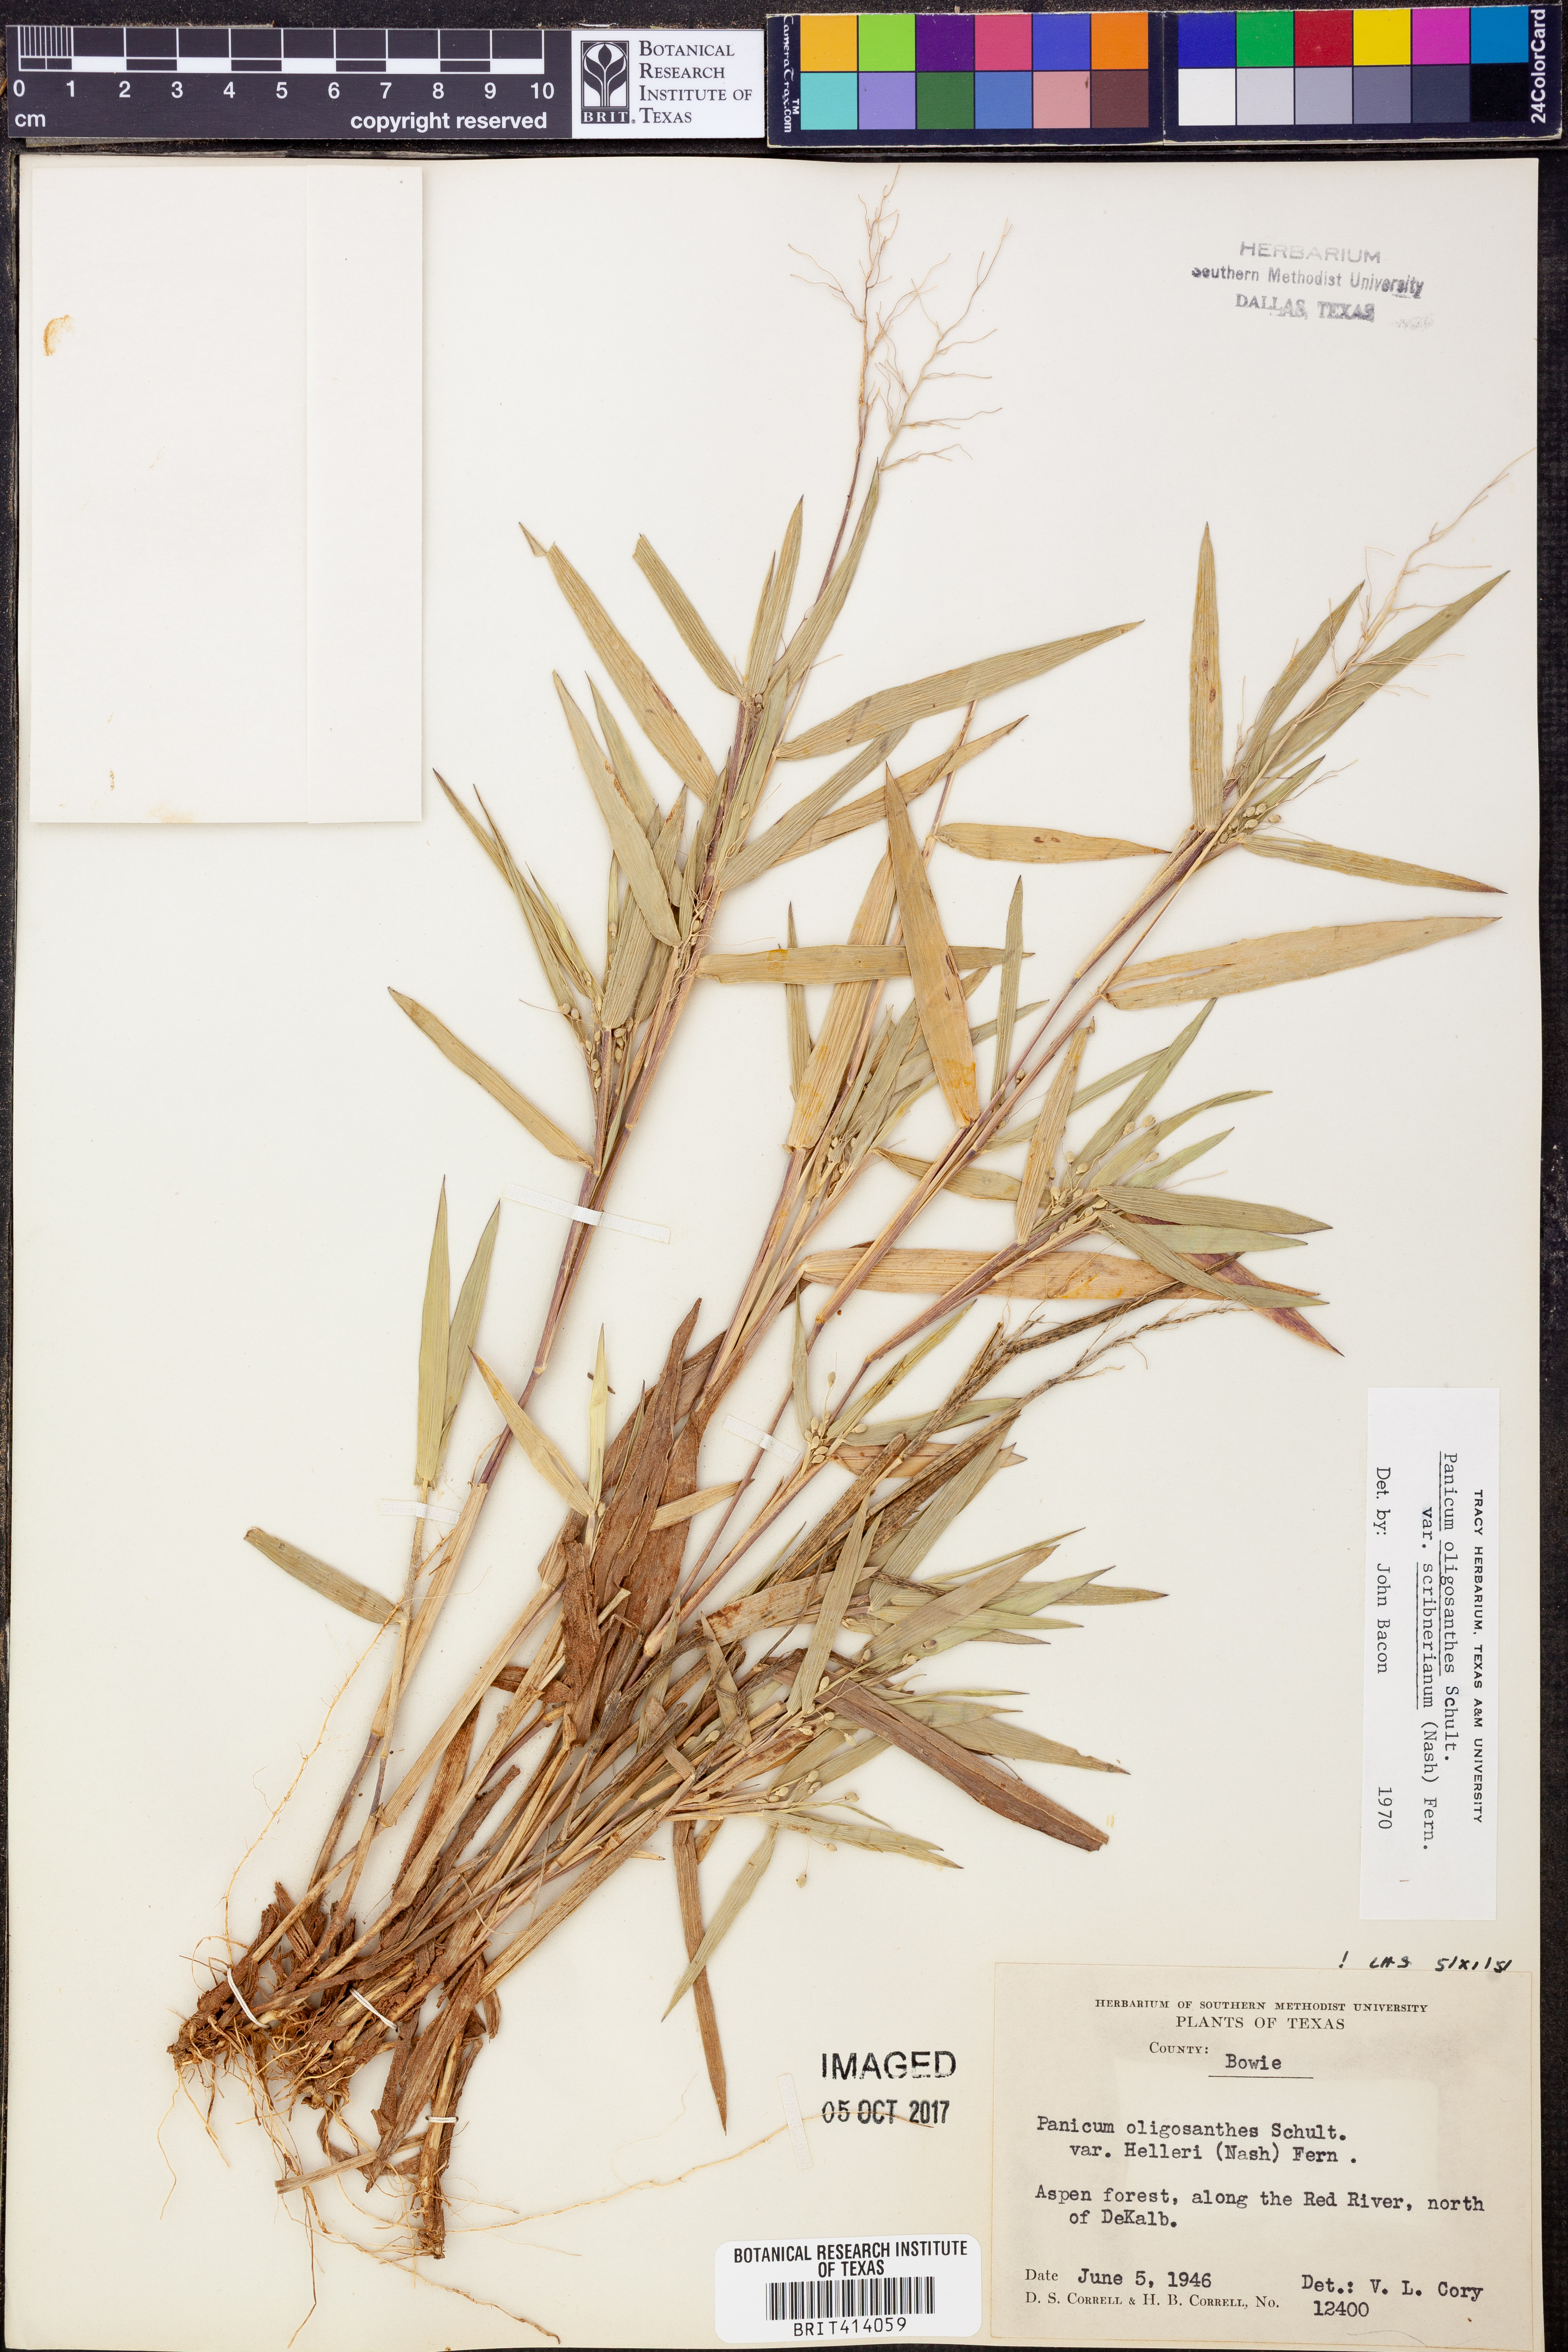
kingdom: Plantae
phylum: Tracheophyta
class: Liliopsida
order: Poales
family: Poaceae
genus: Dichanthelium
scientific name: Dichanthelium oligosanthes
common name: Few-anther obscuregrass
